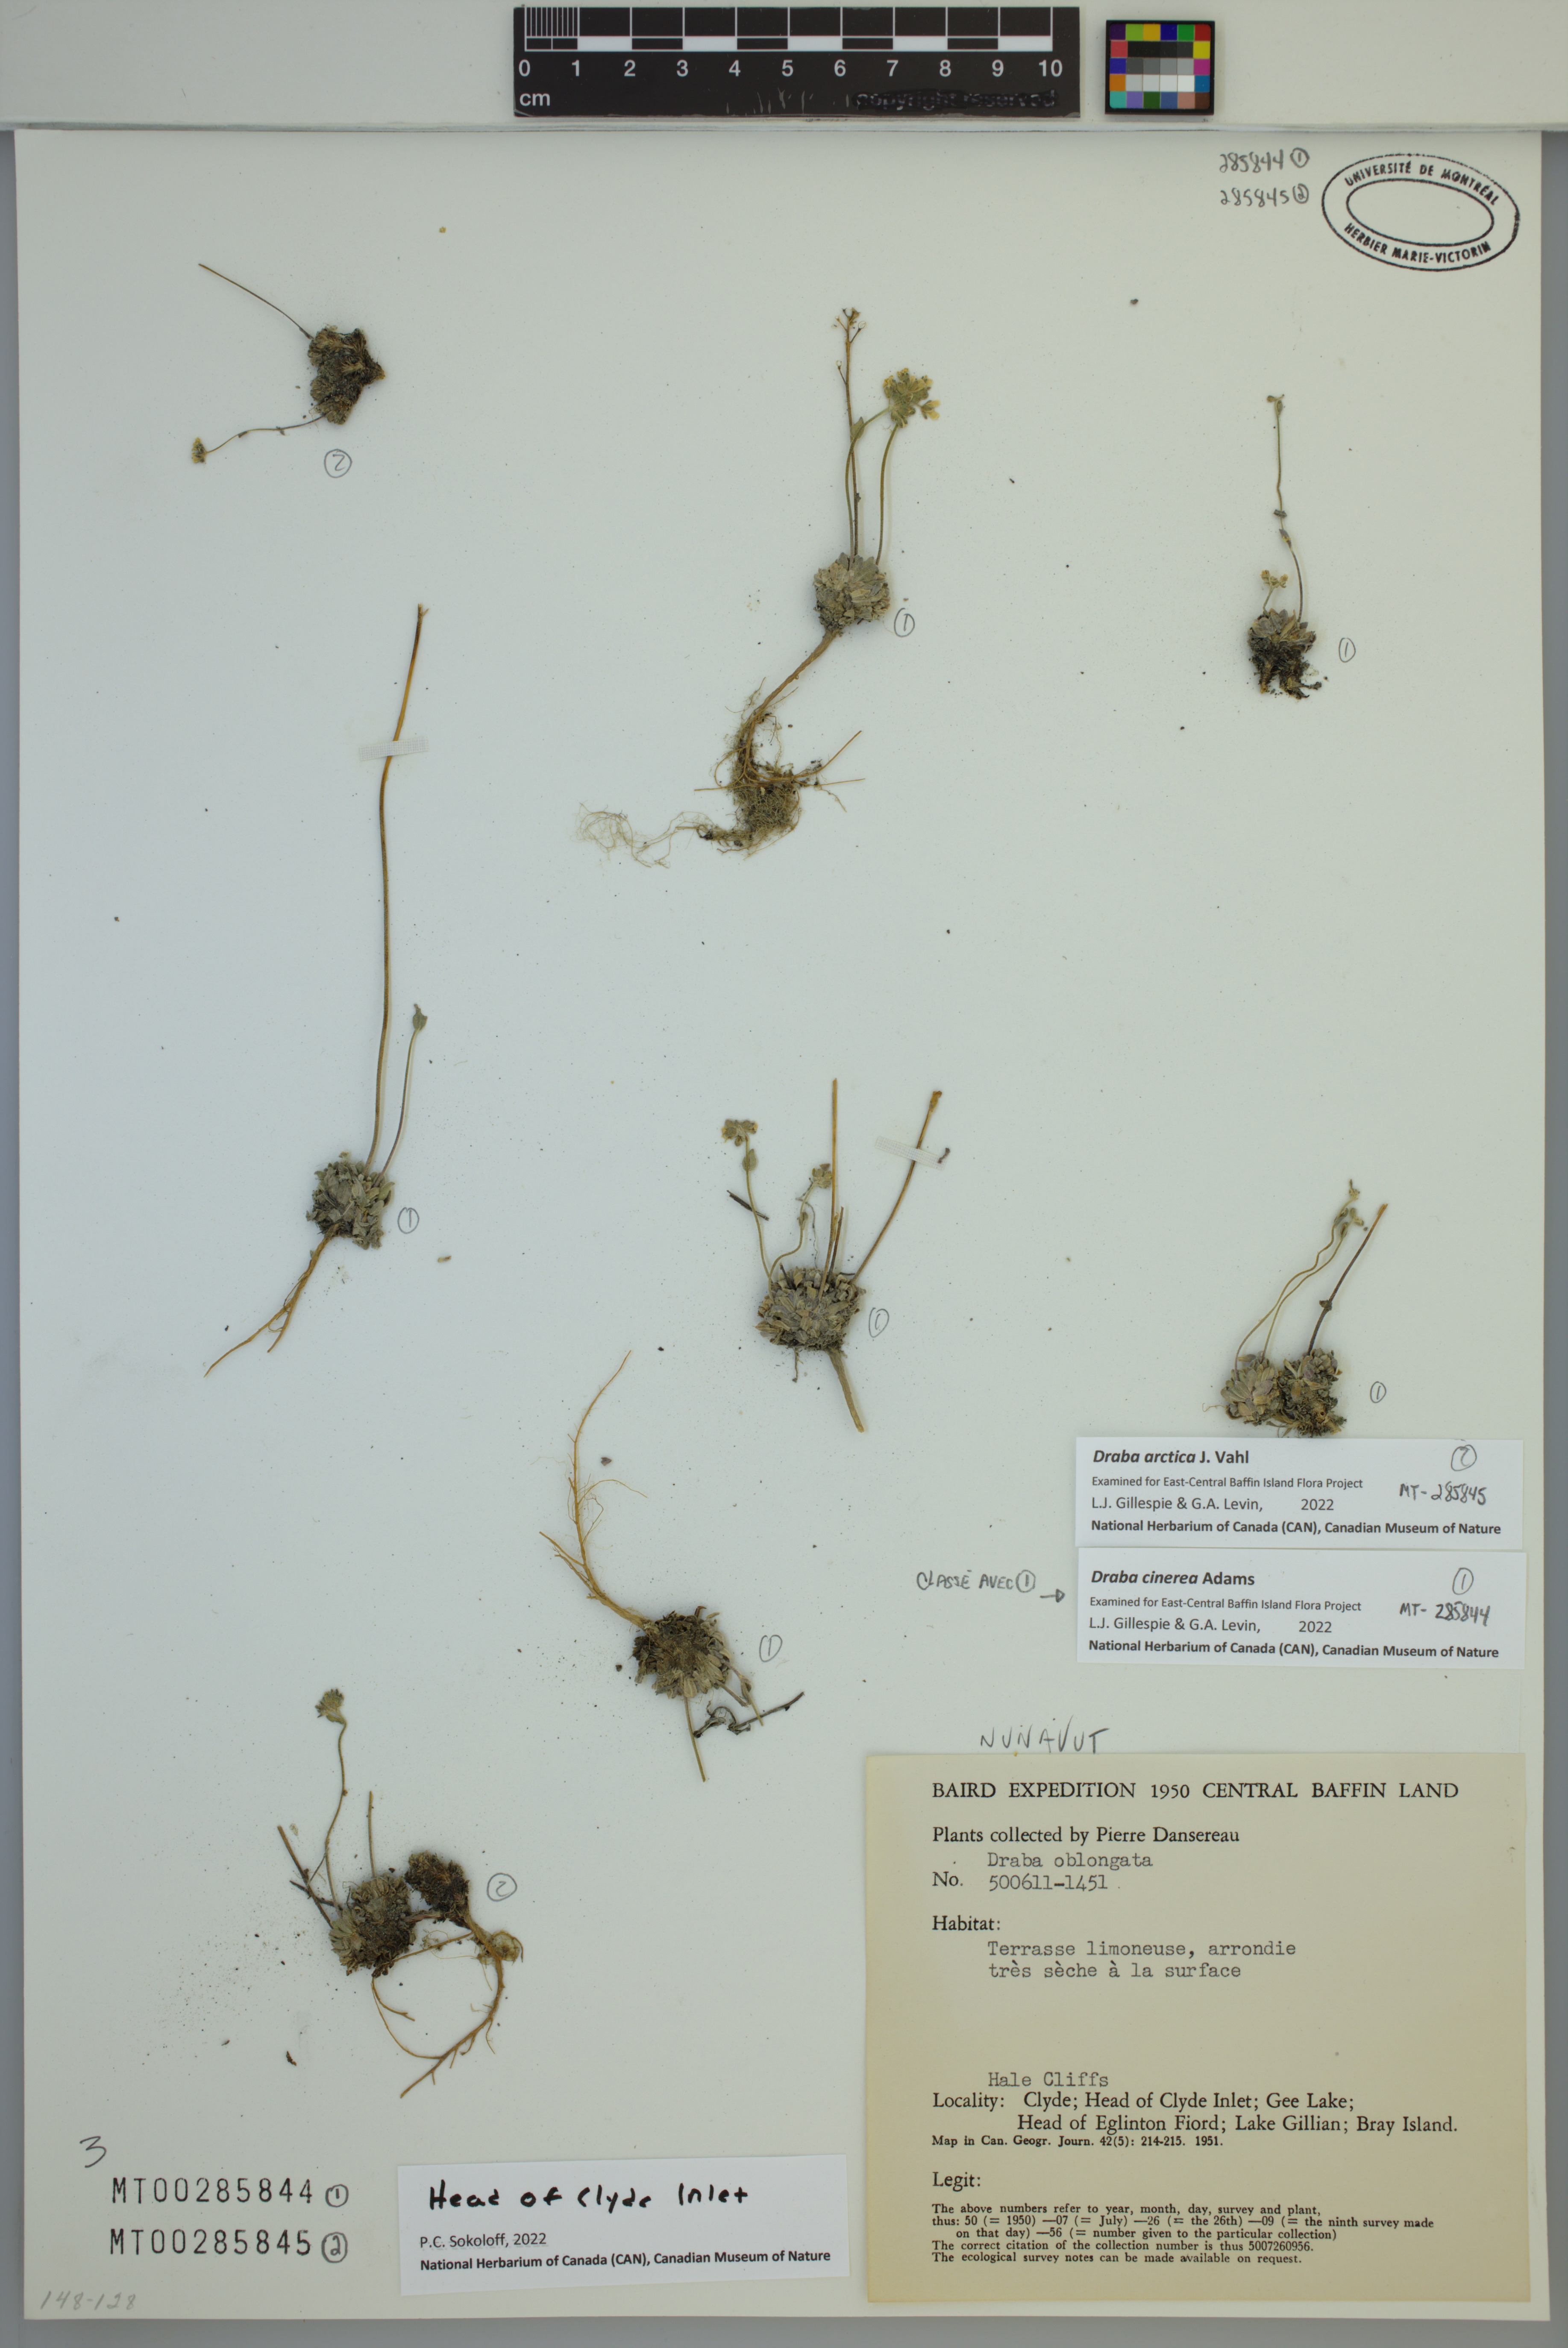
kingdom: Plantae
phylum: Tracheophyta
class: Magnoliopsida
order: Brassicales
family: Brassicaceae
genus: Draba
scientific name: Draba cinerea
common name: Ash-coloured whitlow-grass
